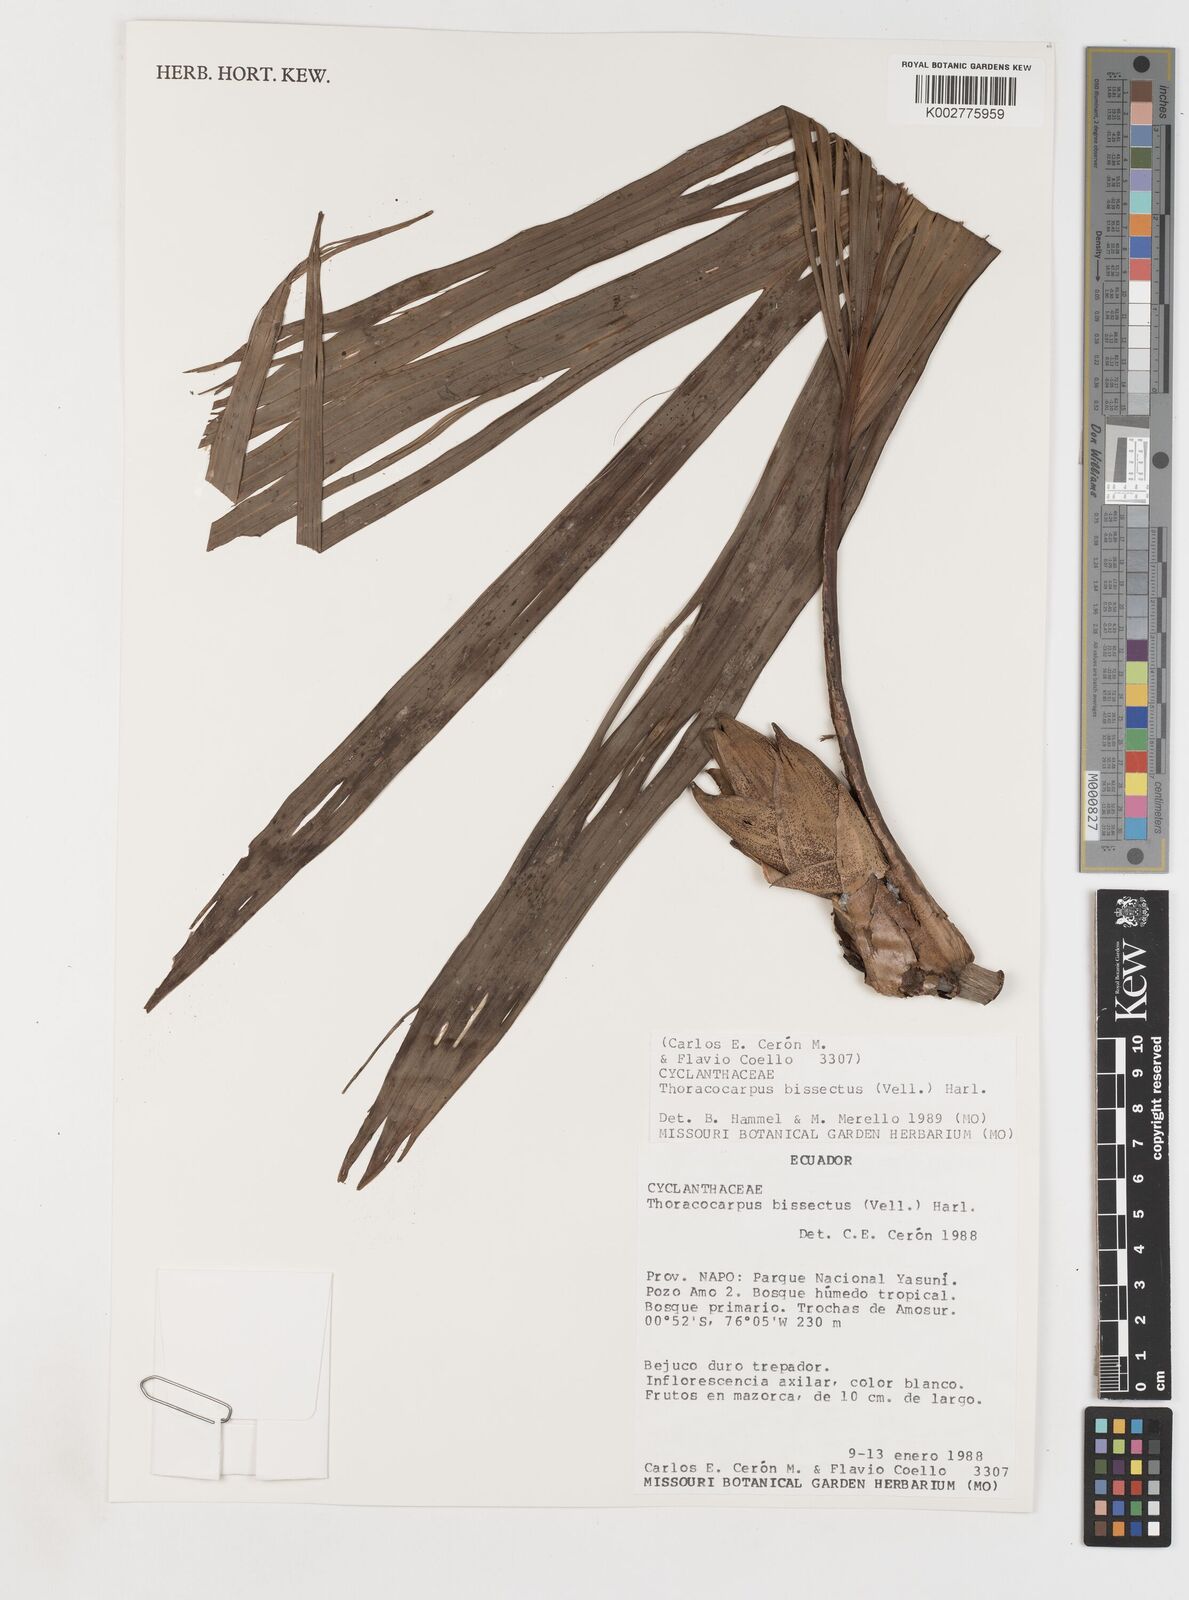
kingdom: Plantae
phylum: Tracheophyta
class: Liliopsida
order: Pandanales
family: Cyclanthaceae
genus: Thoracocarpus
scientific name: Thoracocarpus bissectus
